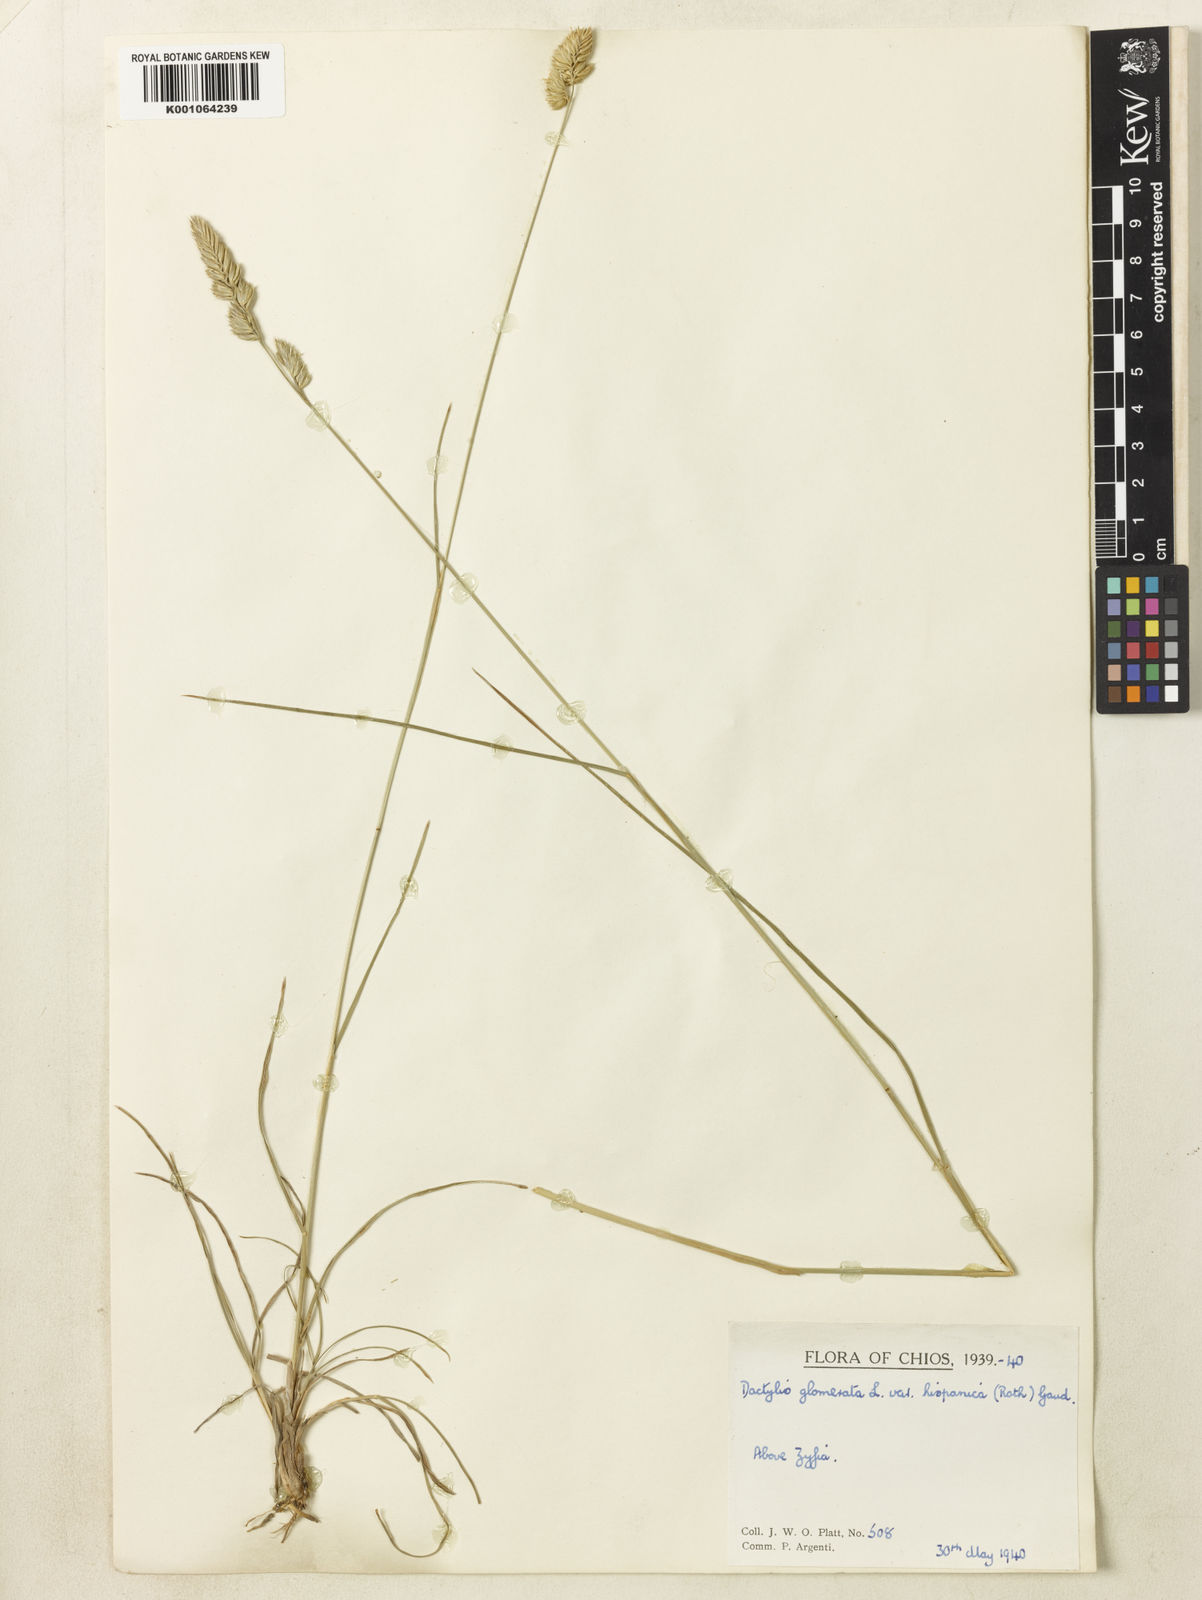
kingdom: Plantae
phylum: Tracheophyta
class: Liliopsida
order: Poales
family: Poaceae
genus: Dactylis
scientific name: Dactylis glomerata
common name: Orchardgrass
